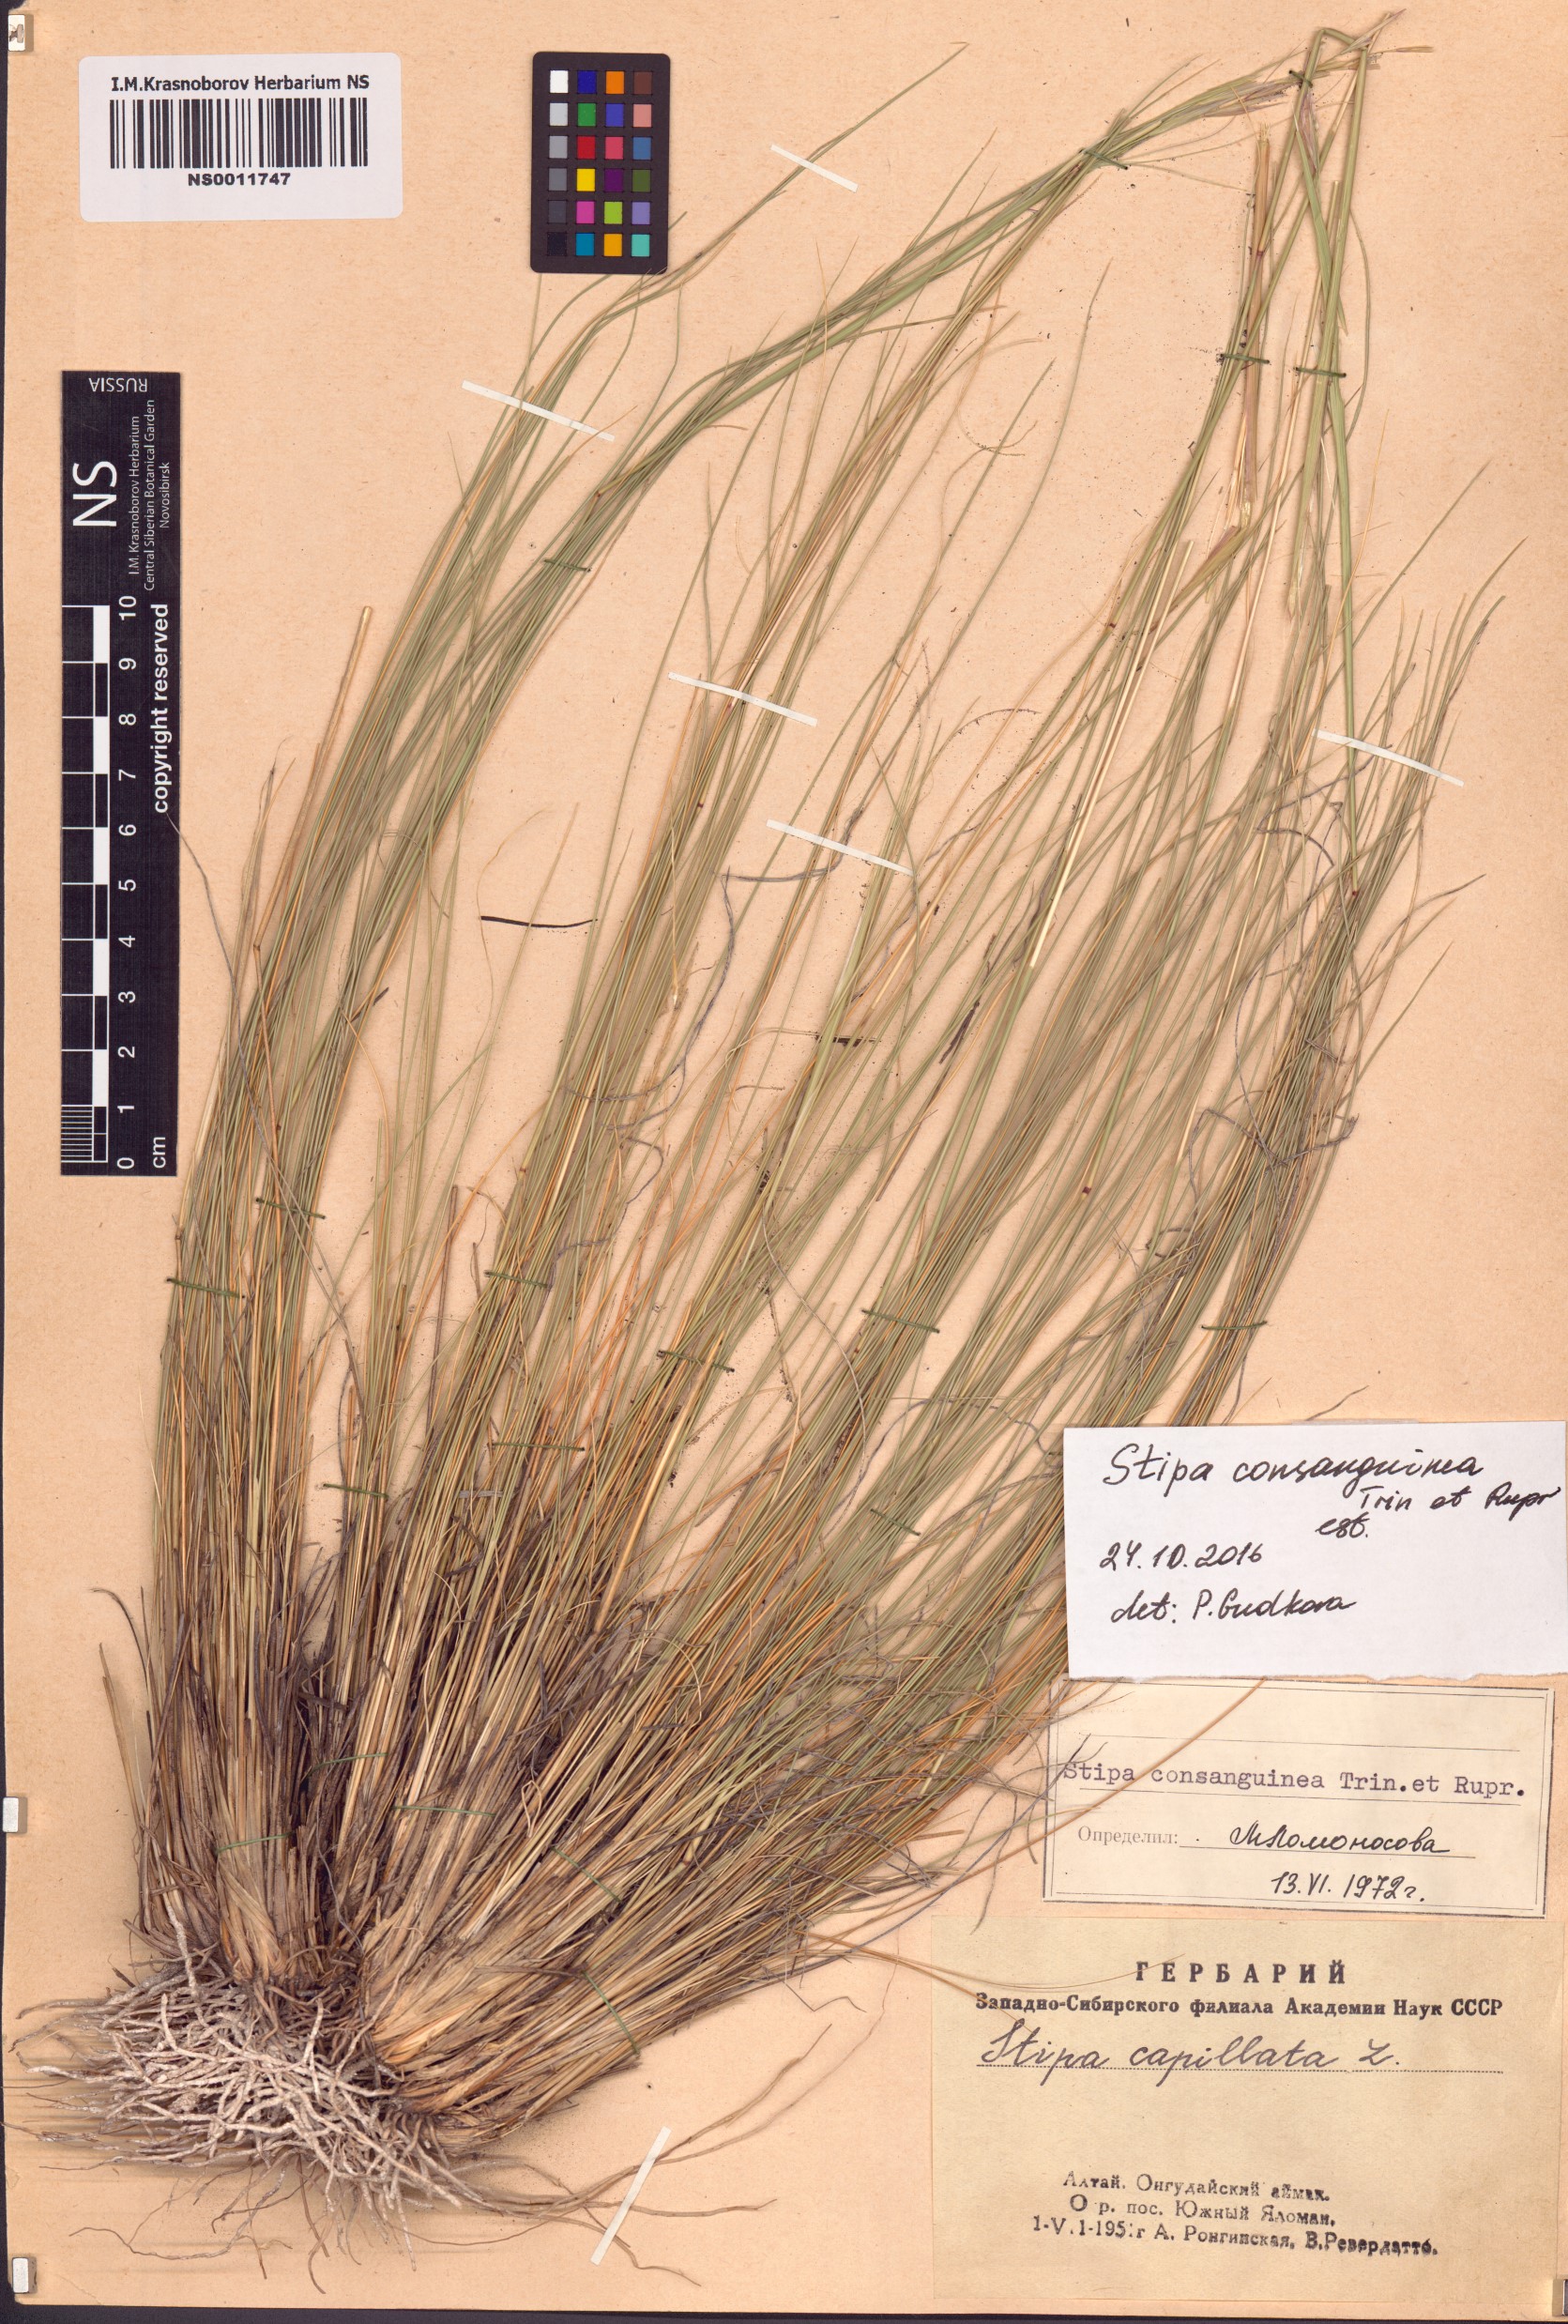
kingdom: Plantae
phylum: Tracheophyta
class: Liliopsida
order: Poales
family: Poaceae
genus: Stipa
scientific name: Stipa consanguinea
